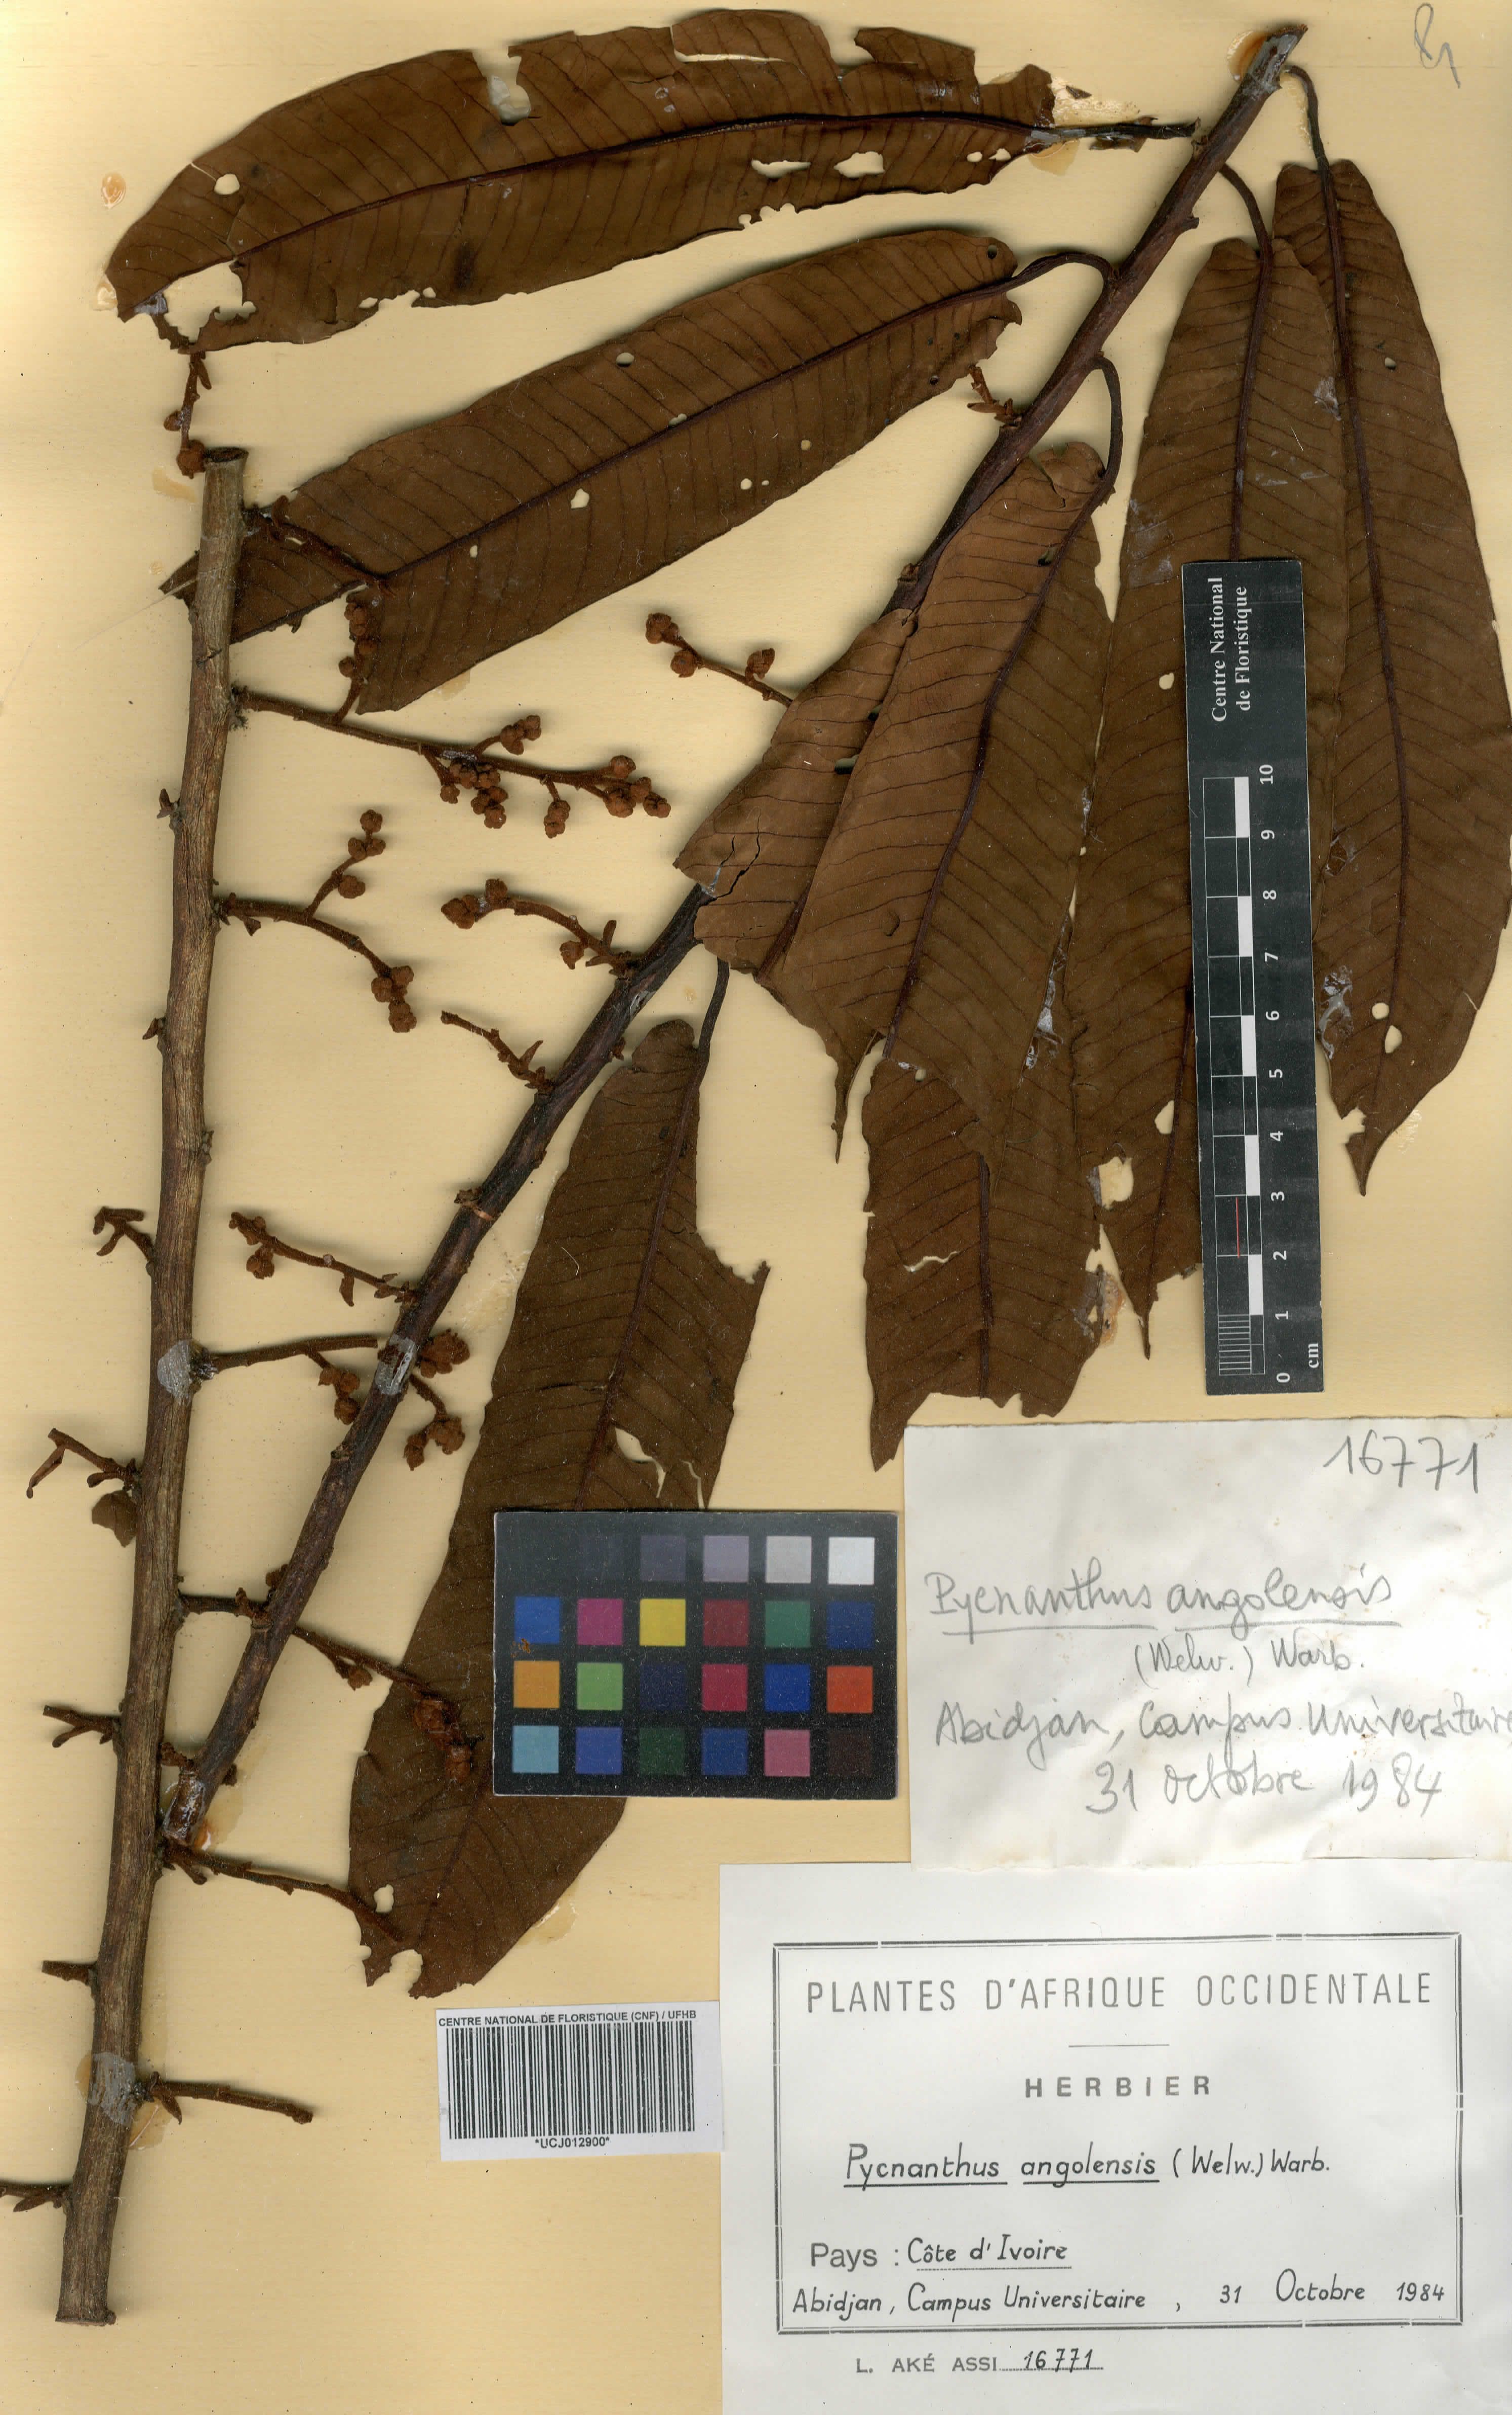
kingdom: Plantae
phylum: Tracheophyta
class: Magnoliopsida
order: Magnoliales
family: Myristicaceae
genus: Pycnanthus
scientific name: Pycnanthus angolensis
